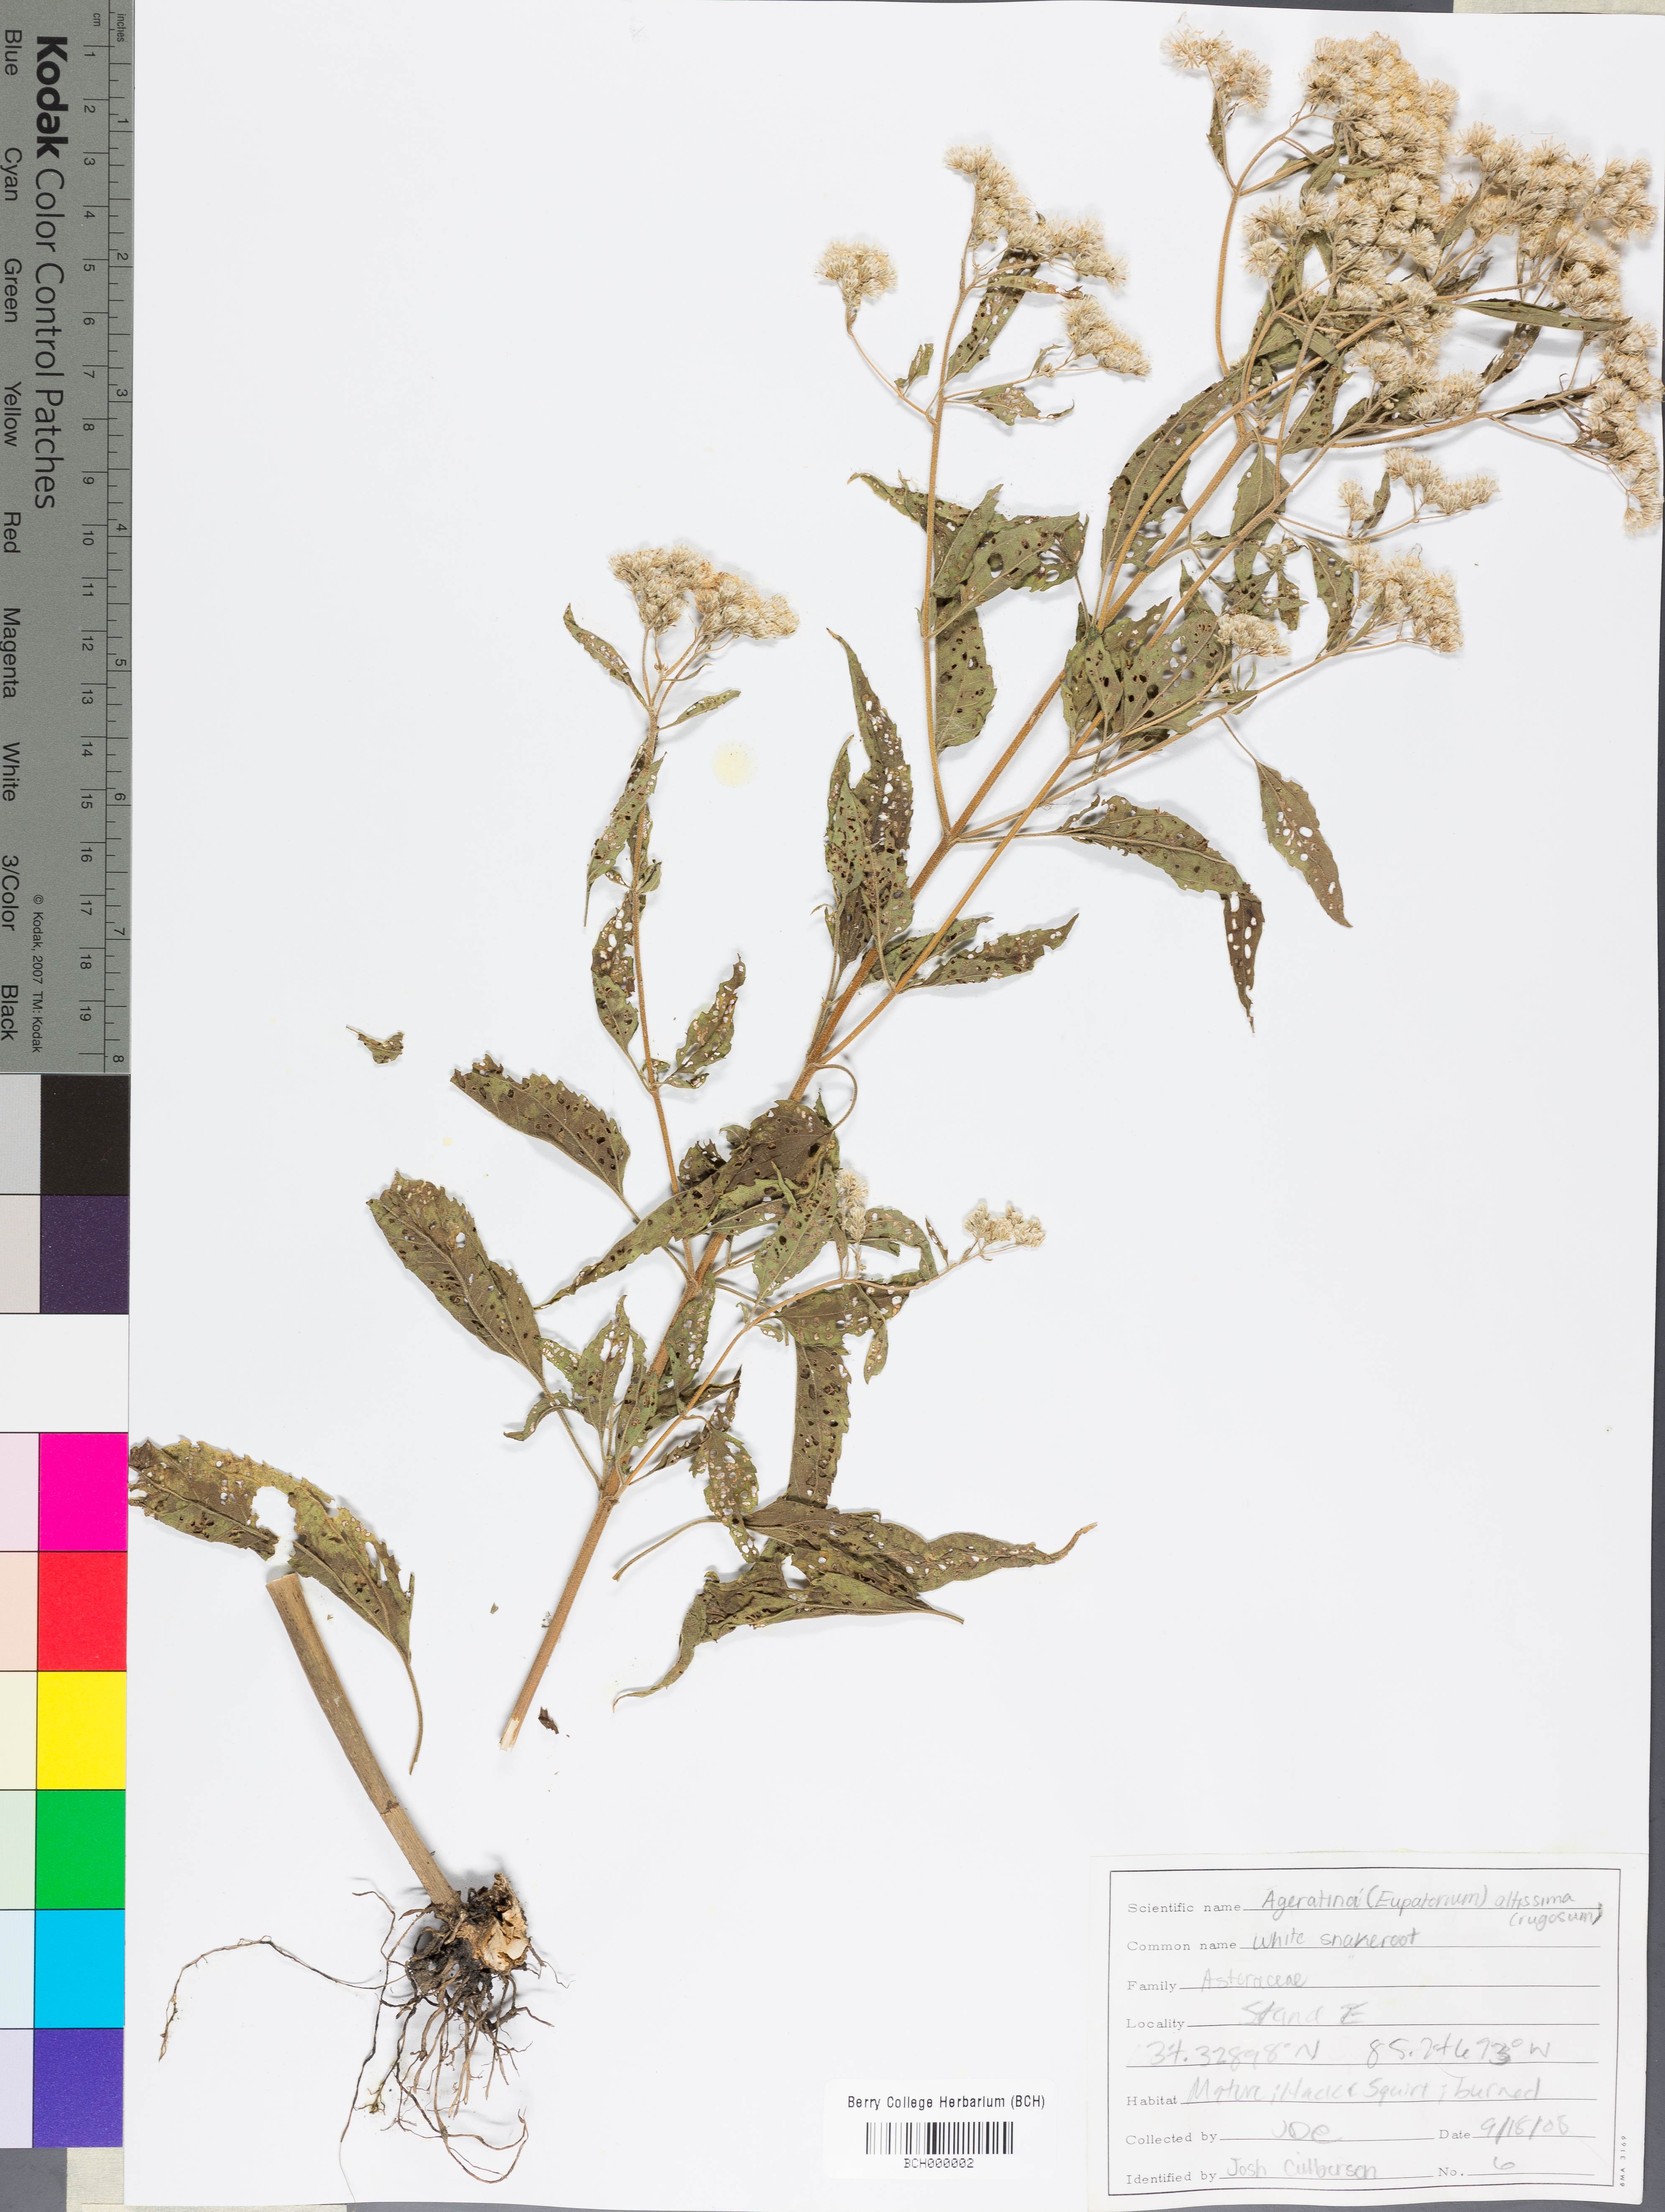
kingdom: Plantae
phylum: Tracheophyta
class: Magnoliopsida
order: Asterales
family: Asteraceae
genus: Ageratina
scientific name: Ageratina altissima
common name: White snakeroot
